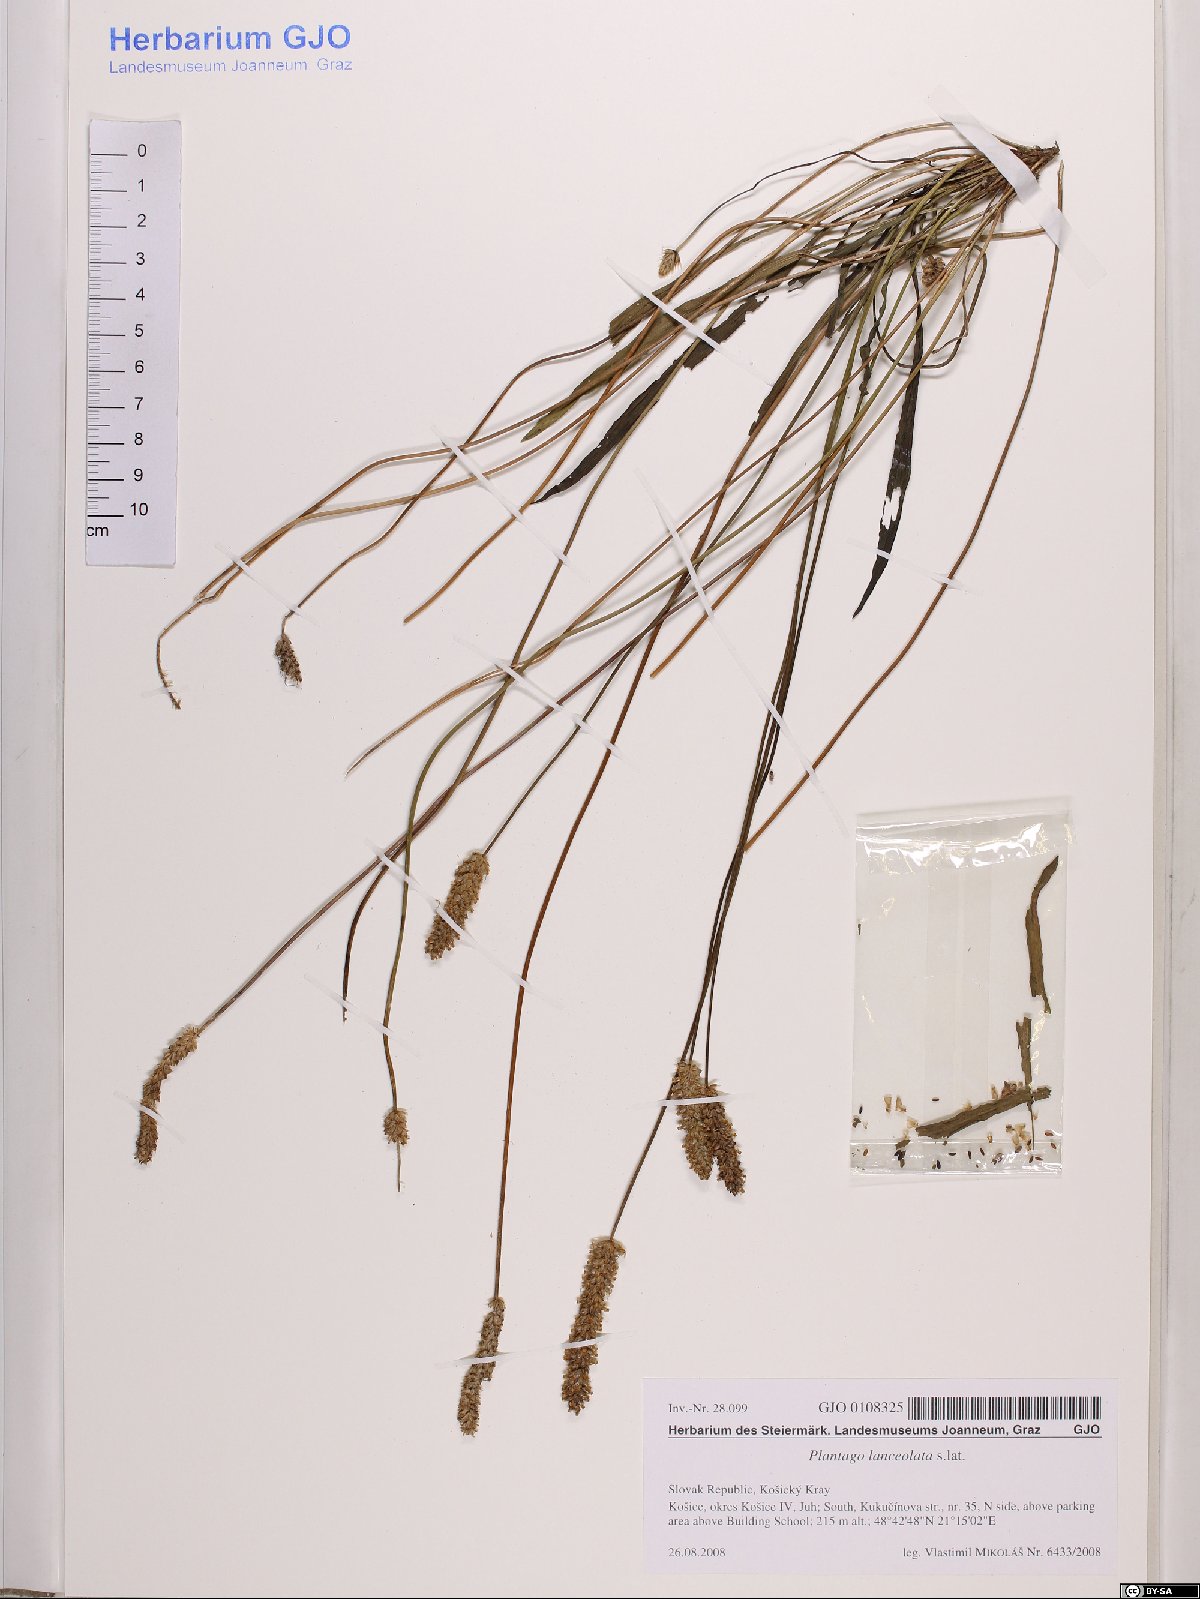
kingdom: Plantae
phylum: Tracheophyta
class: Magnoliopsida
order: Lamiales
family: Plantaginaceae
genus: Plantago
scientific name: Plantago lanceolata
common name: Ribwort plantain
